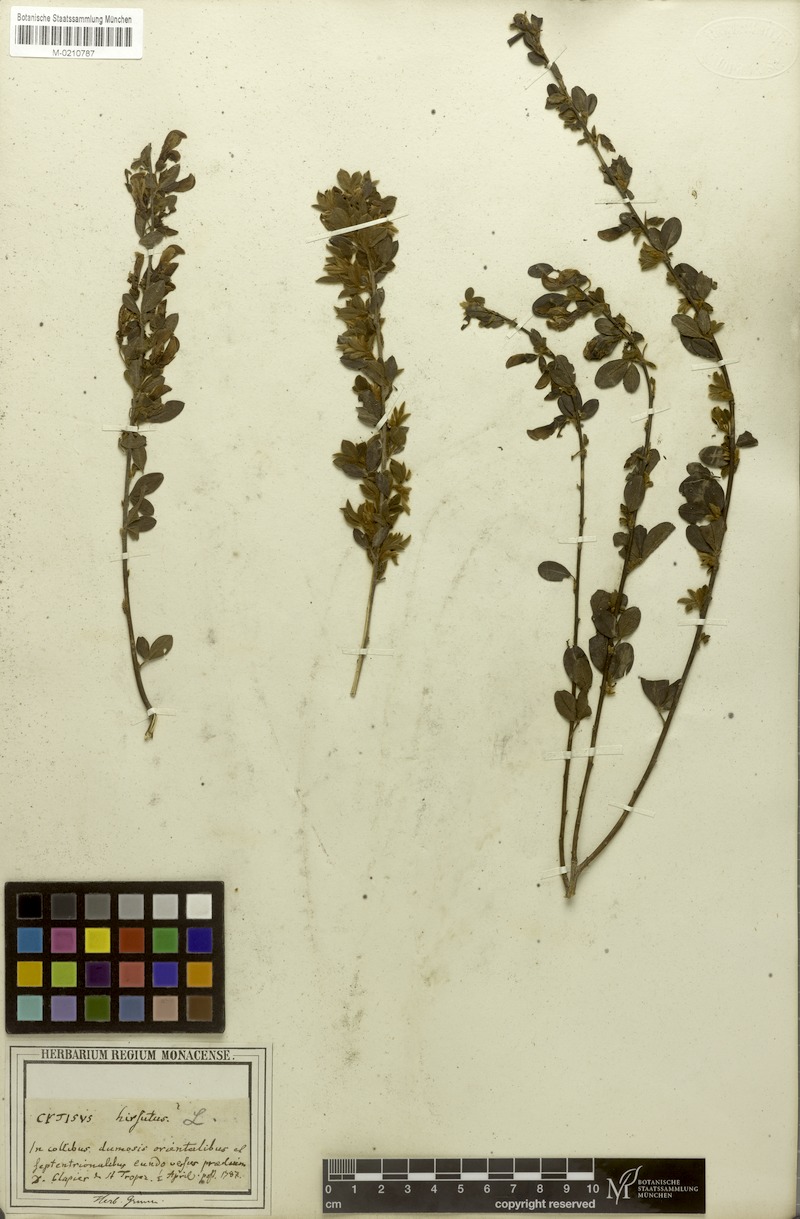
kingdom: Plantae
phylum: Tracheophyta
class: Magnoliopsida
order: Fabales
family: Fabaceae
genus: Chamaecytisus
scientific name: Chamaecytisus hirsutus
